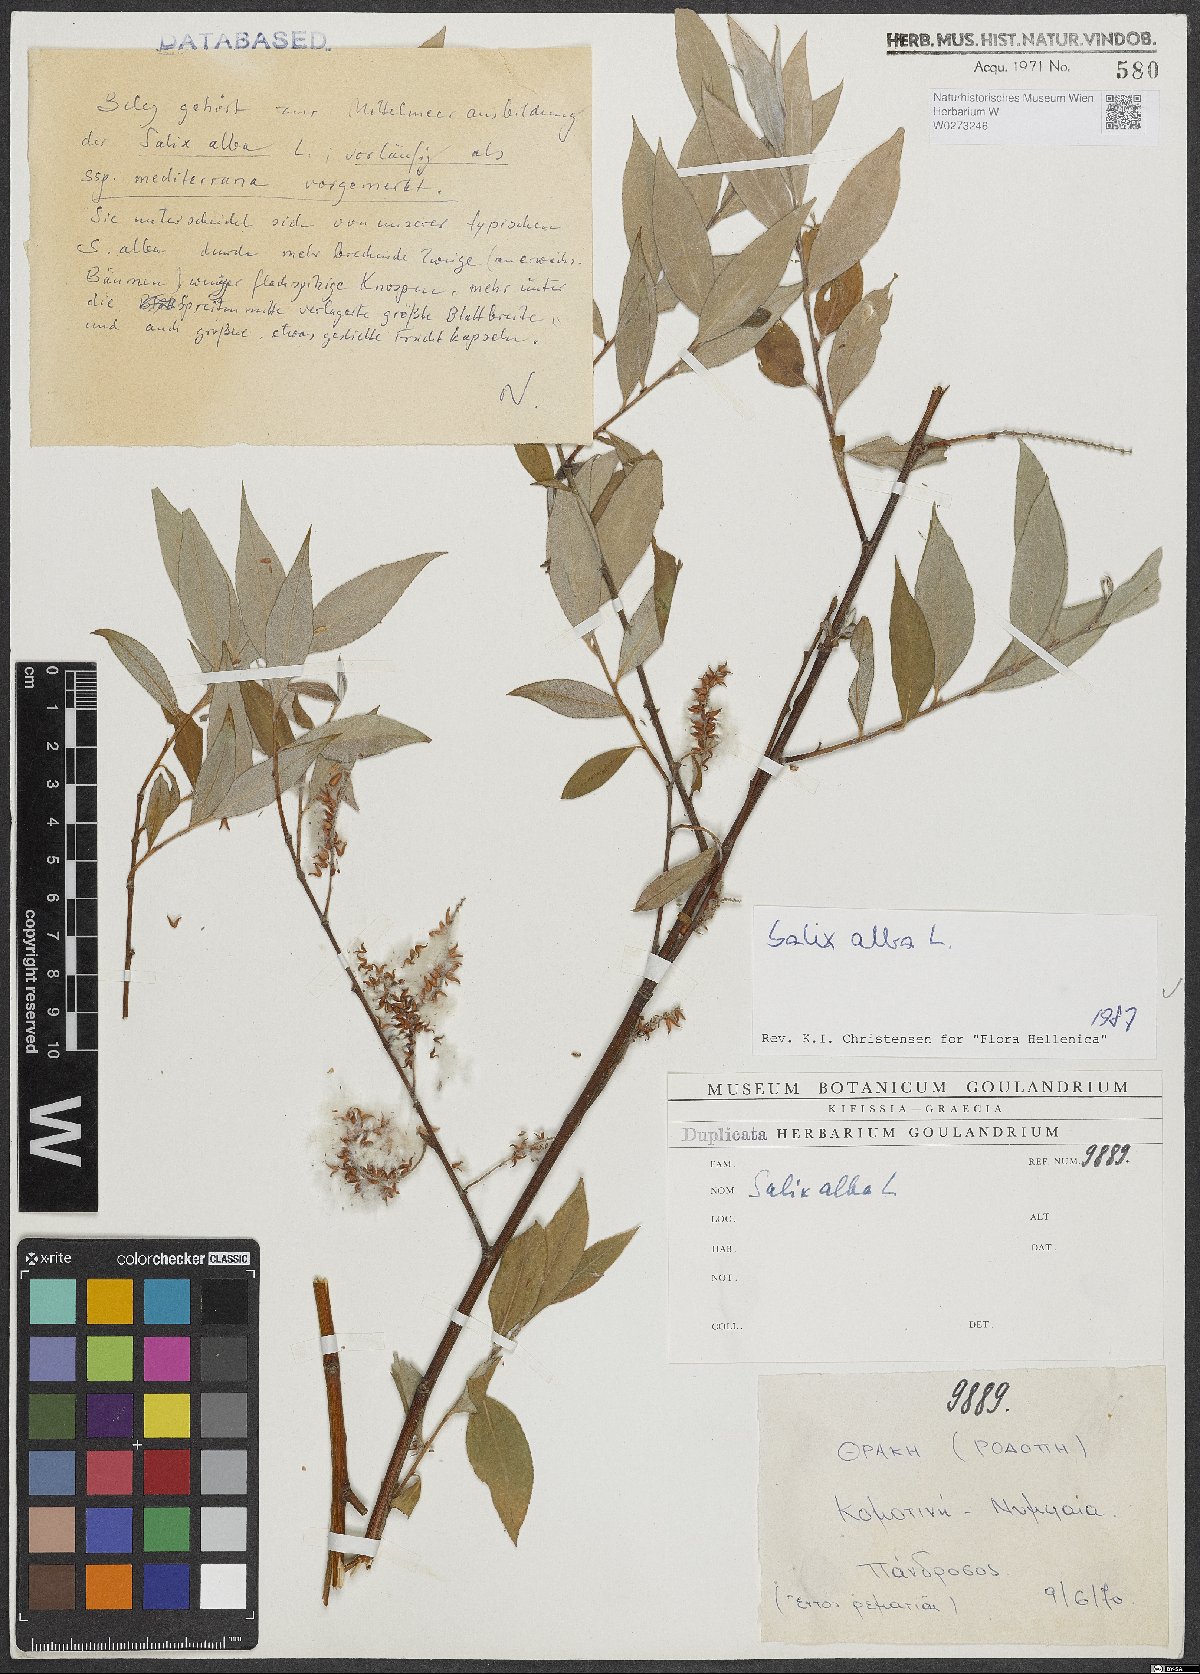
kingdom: Plantae
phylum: Tracheophyta
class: Magnoliopsida
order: Malpighiales
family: Salicaceae
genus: Salix
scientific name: Salix alba
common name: White willow
